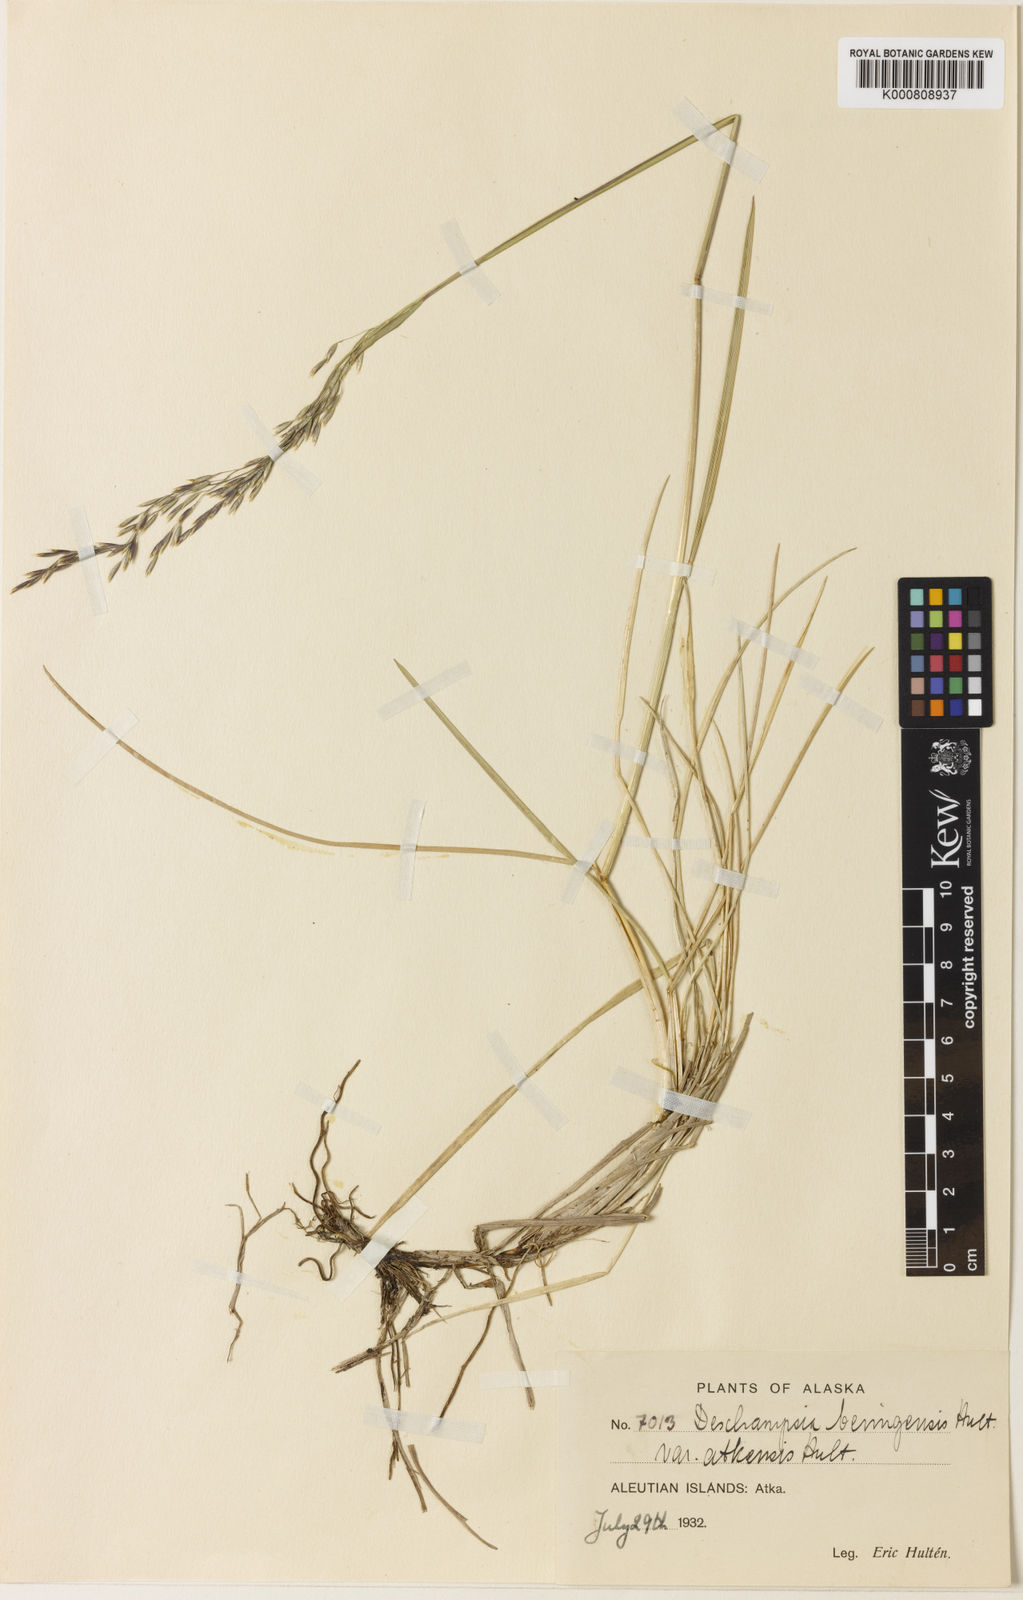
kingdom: Plantae
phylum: Tracheophyta
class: Liliopsida
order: Poales
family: Poaceae
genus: Deschampsia
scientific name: Deschampsia
